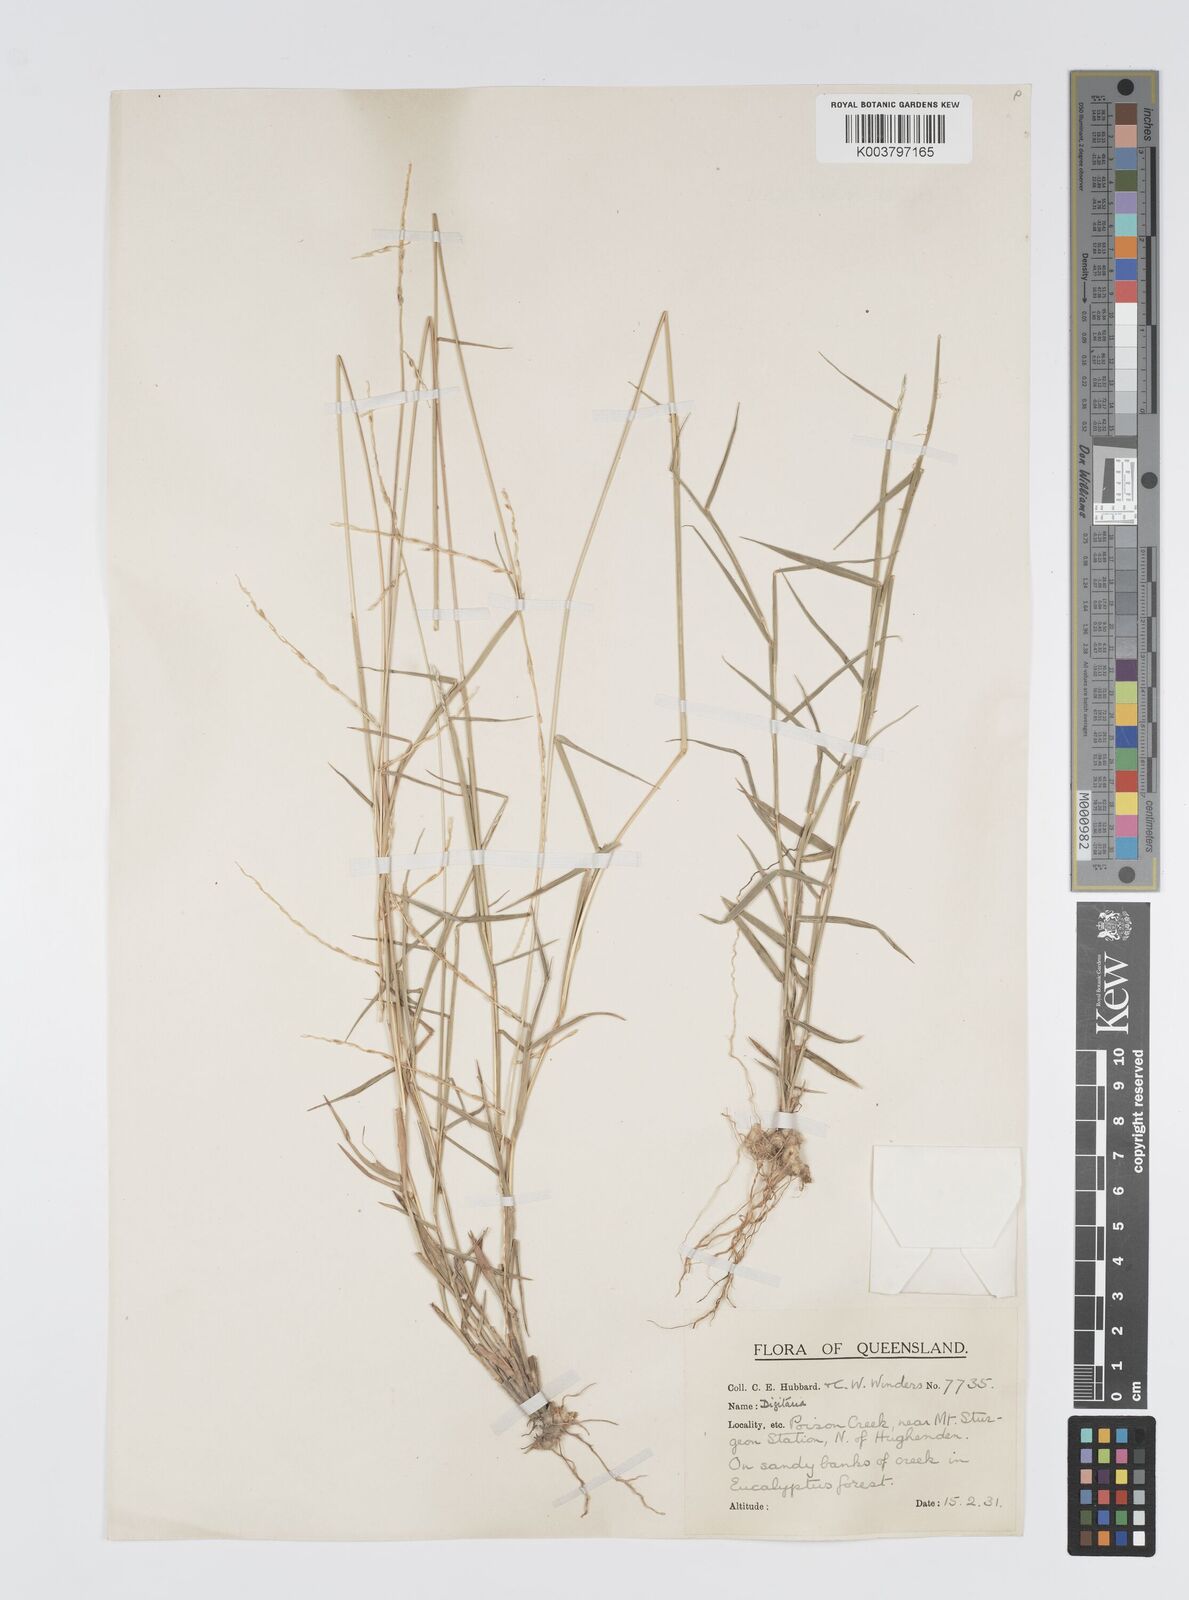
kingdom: Plantae
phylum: Tracheophyta
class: Liliopsida
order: Poales
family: Poaceae
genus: Digitaria
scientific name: Digitaria spec
